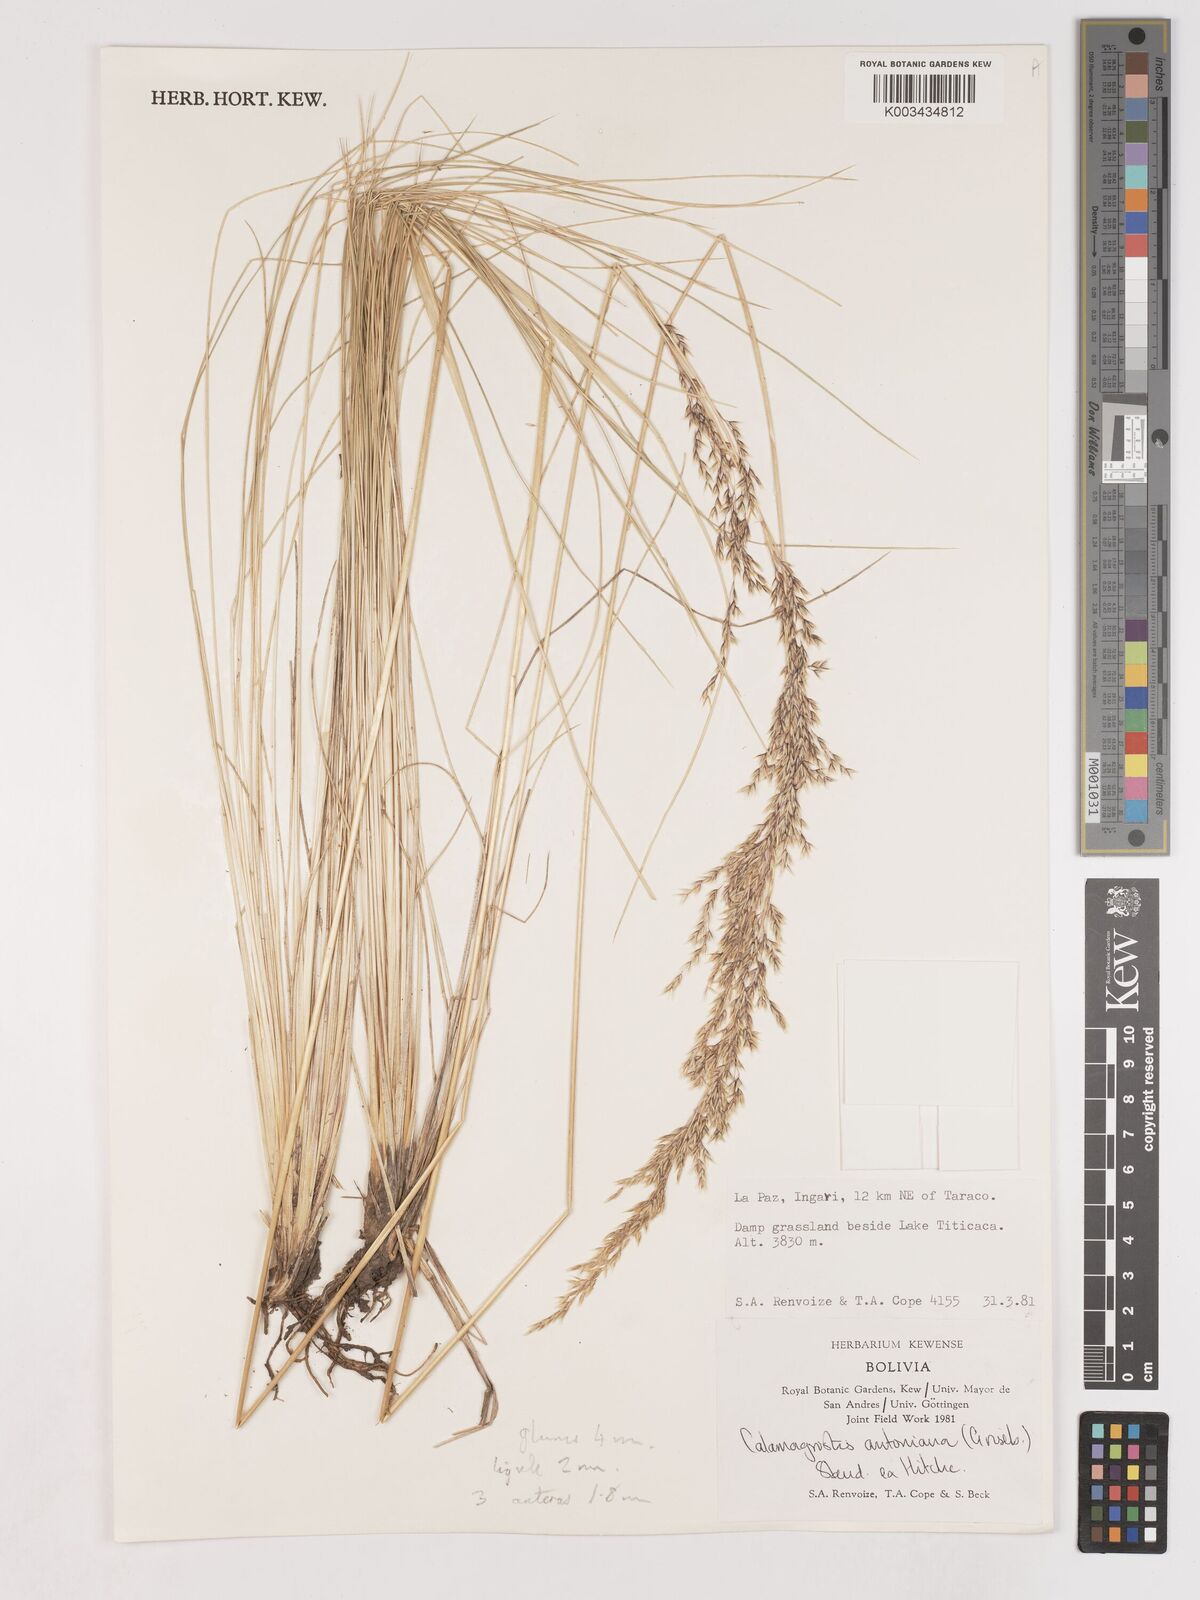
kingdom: Plantae
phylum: Tracheophyta
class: Liliopsida
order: Poales
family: Poaceae
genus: Cinnagrostis
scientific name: Cinnagrostis orbignyana
